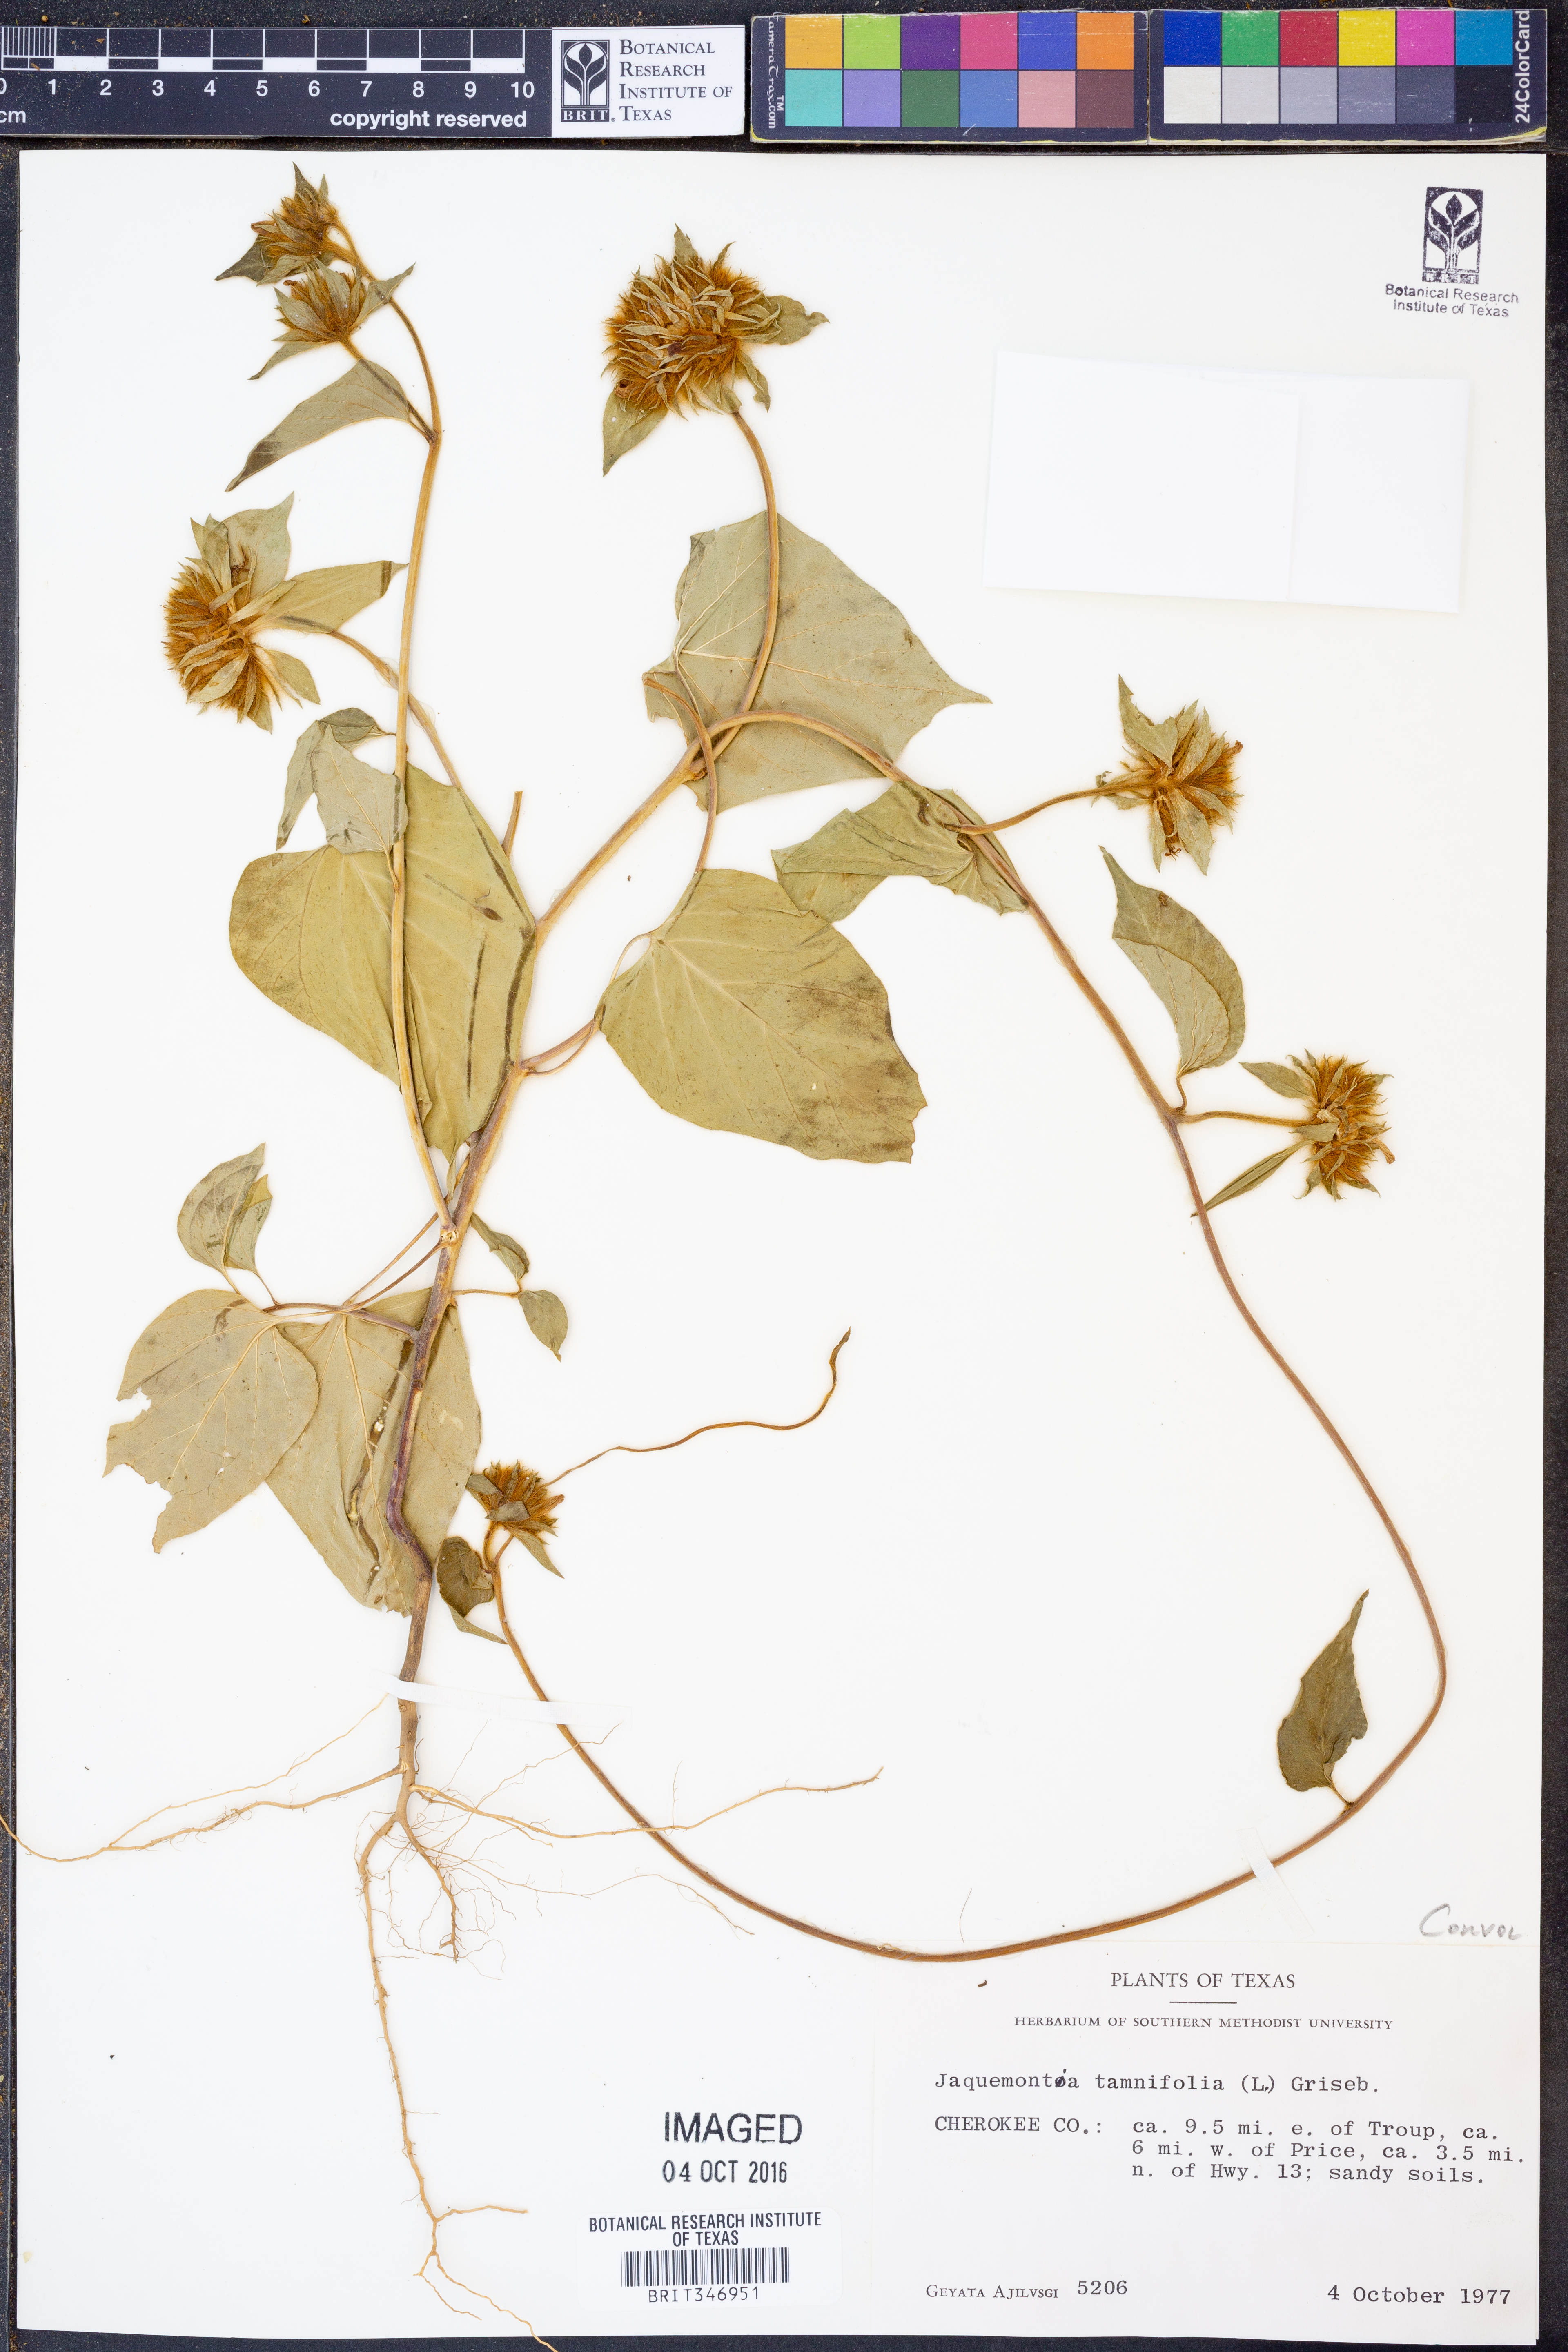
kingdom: Plantae
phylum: Tracheophyta
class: Magnoliopsida
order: Solanales
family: Convolvulaceae
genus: Jacquemontia
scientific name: Jacquemontia tamnifolia
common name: Hairy clustervine
